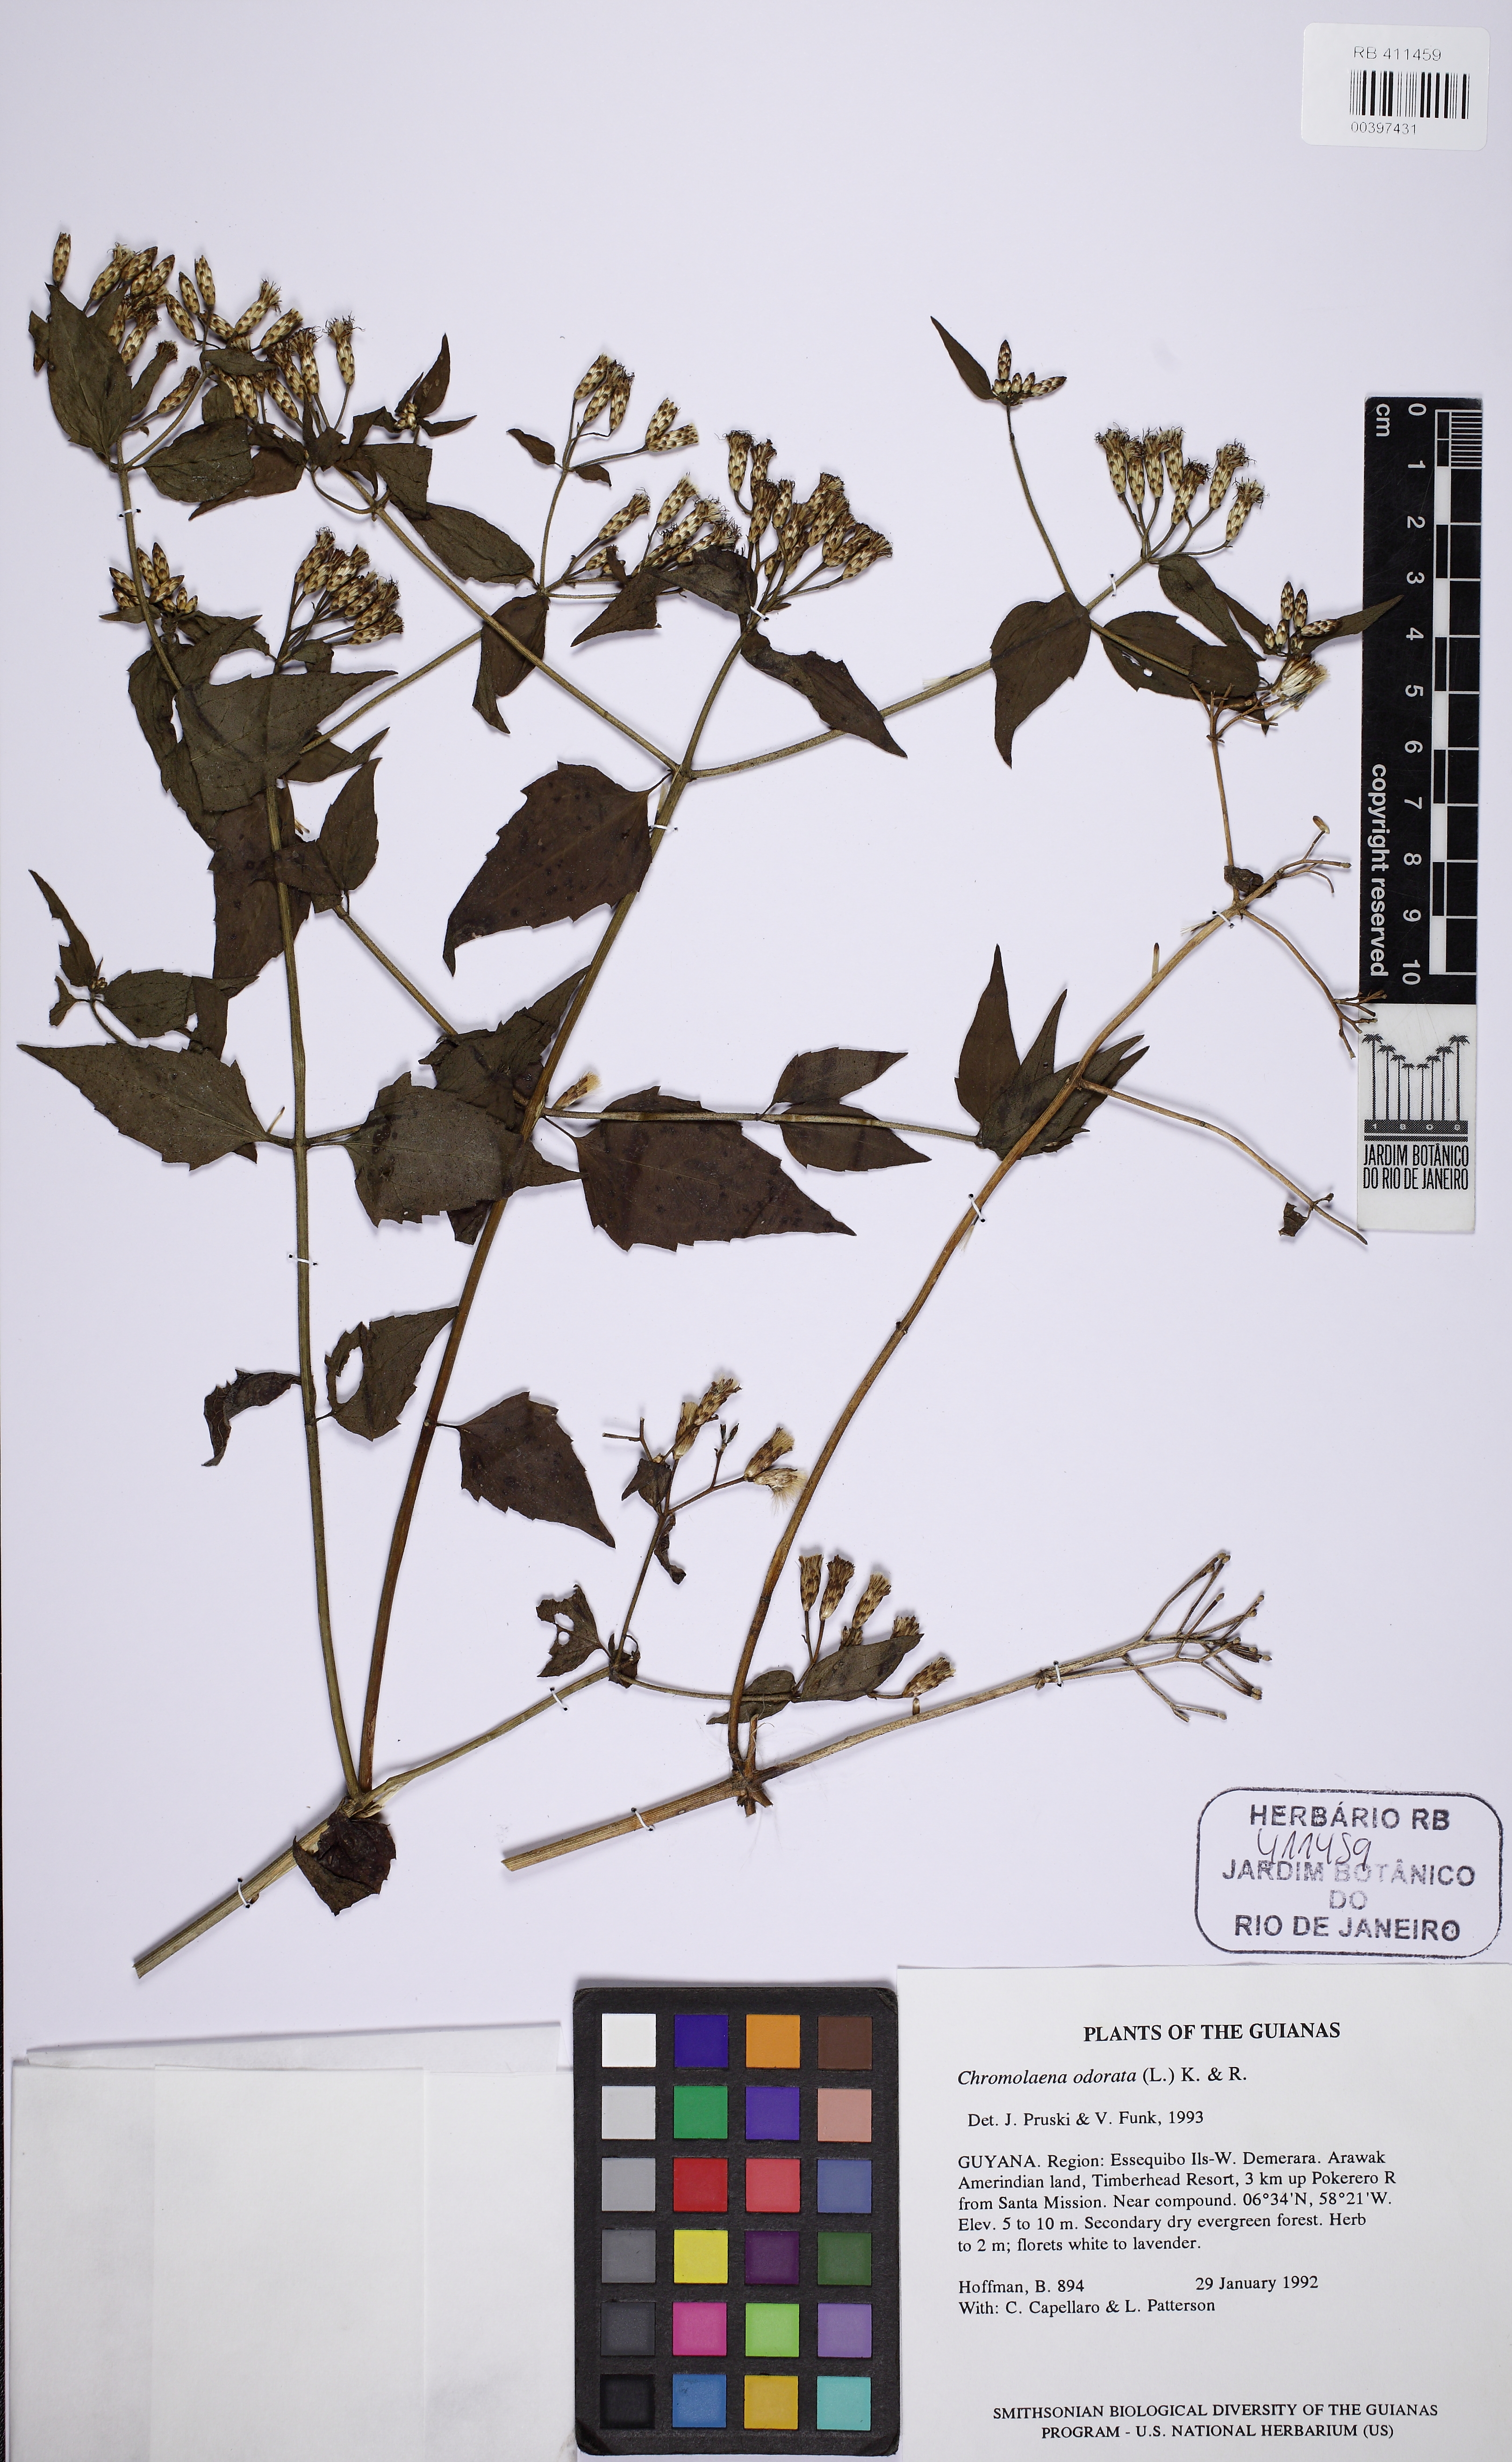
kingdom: Plantae
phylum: Tracheophyta
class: Magnoliopsida
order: Asterales
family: Asteraceae
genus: Chromolaena
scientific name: Chromolaena odorata
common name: Siamweed
